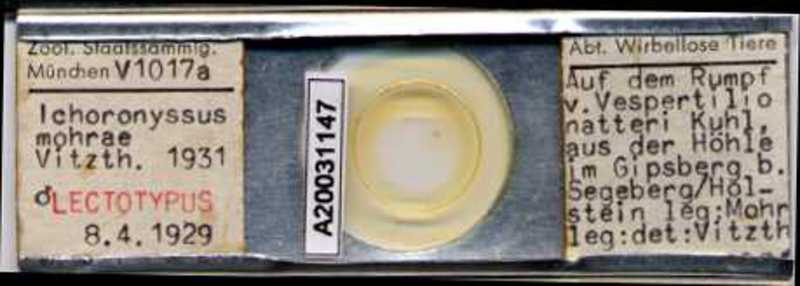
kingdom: Animalia
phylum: Arthropoda
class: Arachnida
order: Mesostigmata
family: Macronyssidae
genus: Macronyssus
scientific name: Macronyssus ellipticus
